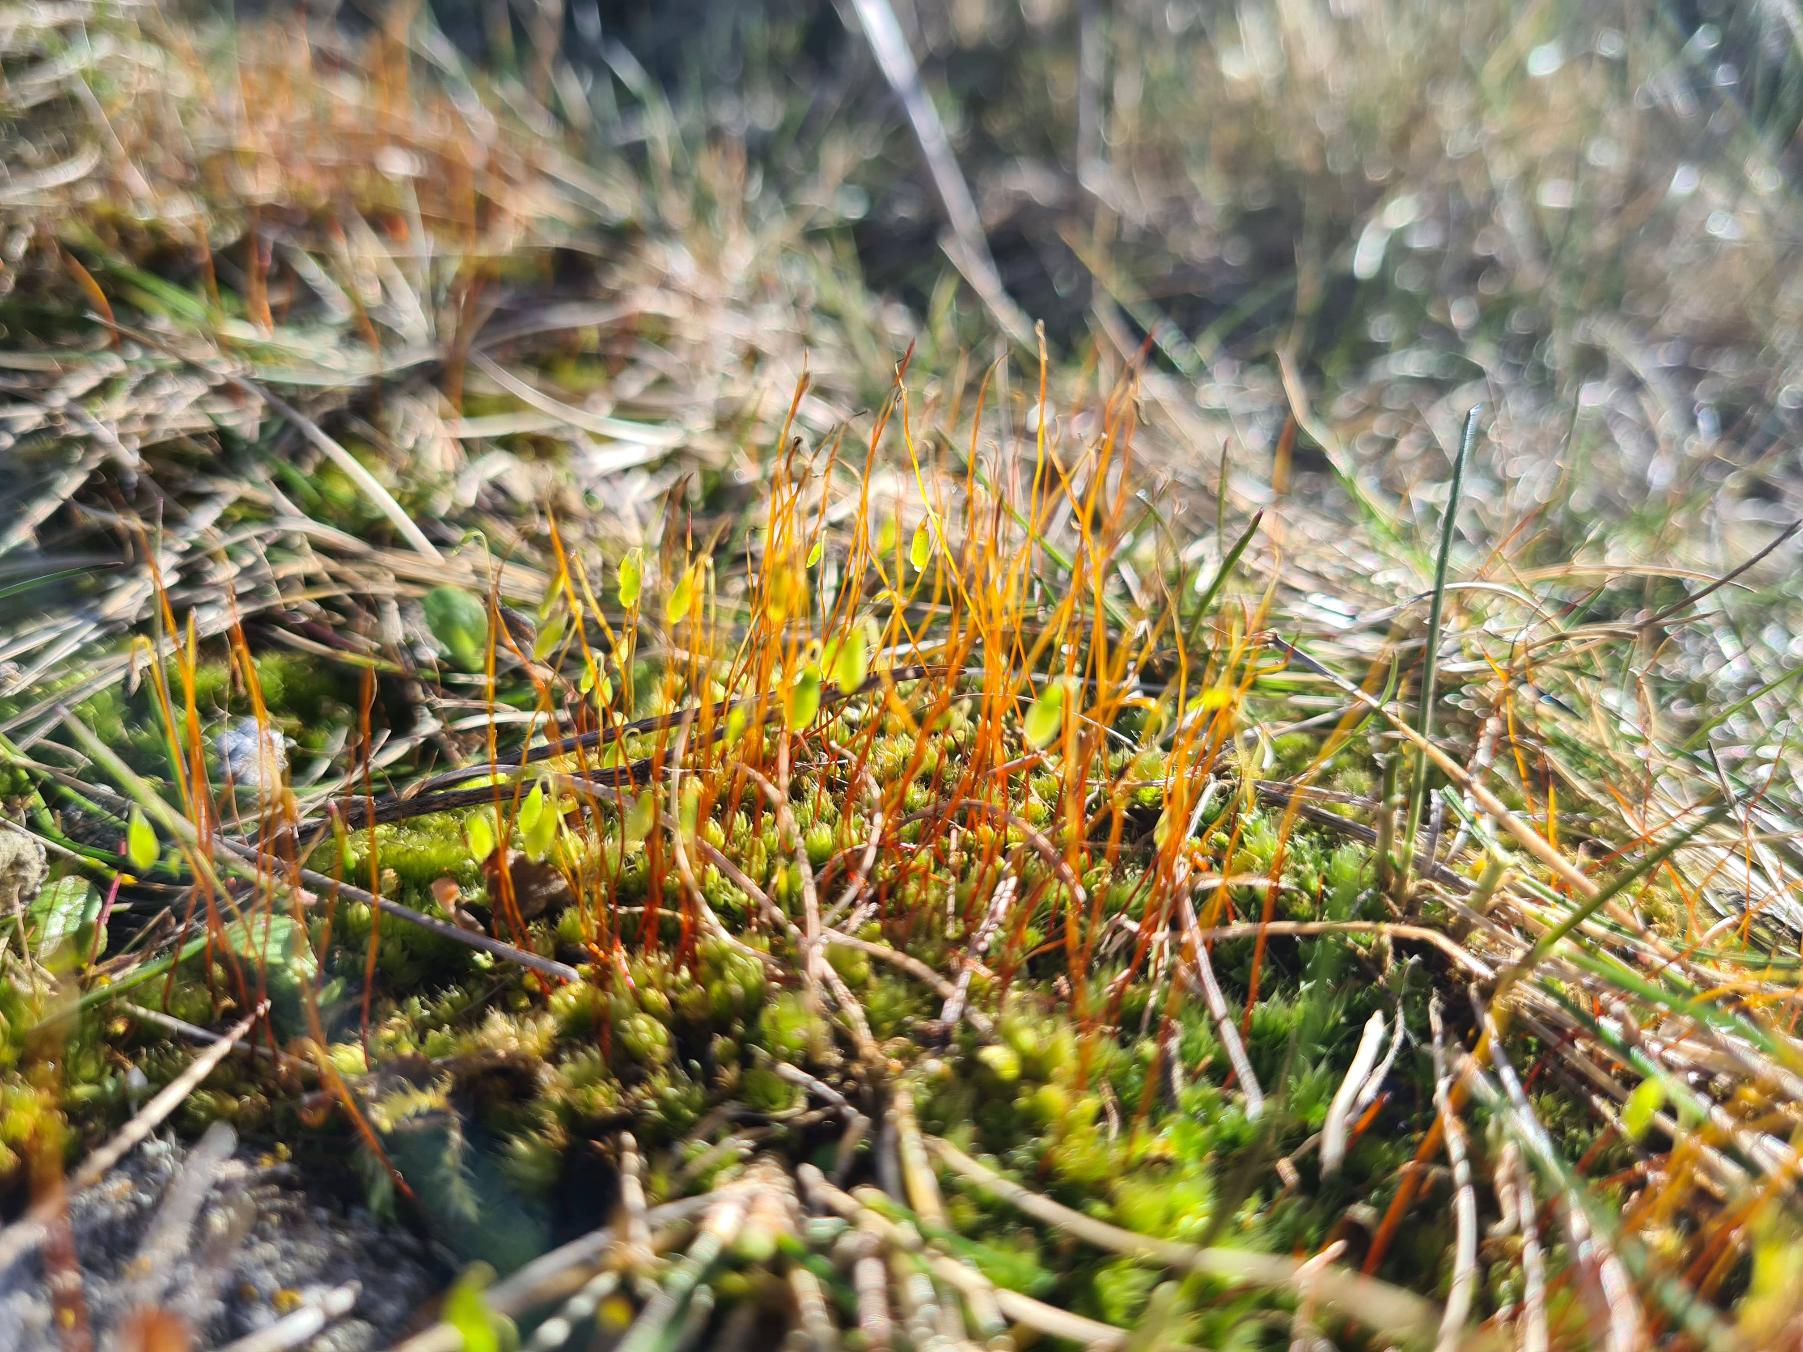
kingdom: Plantae
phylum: Bryophyta
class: Bryopsida
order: Bryales
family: Bryaceae
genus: Bryum
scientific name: Bryum
